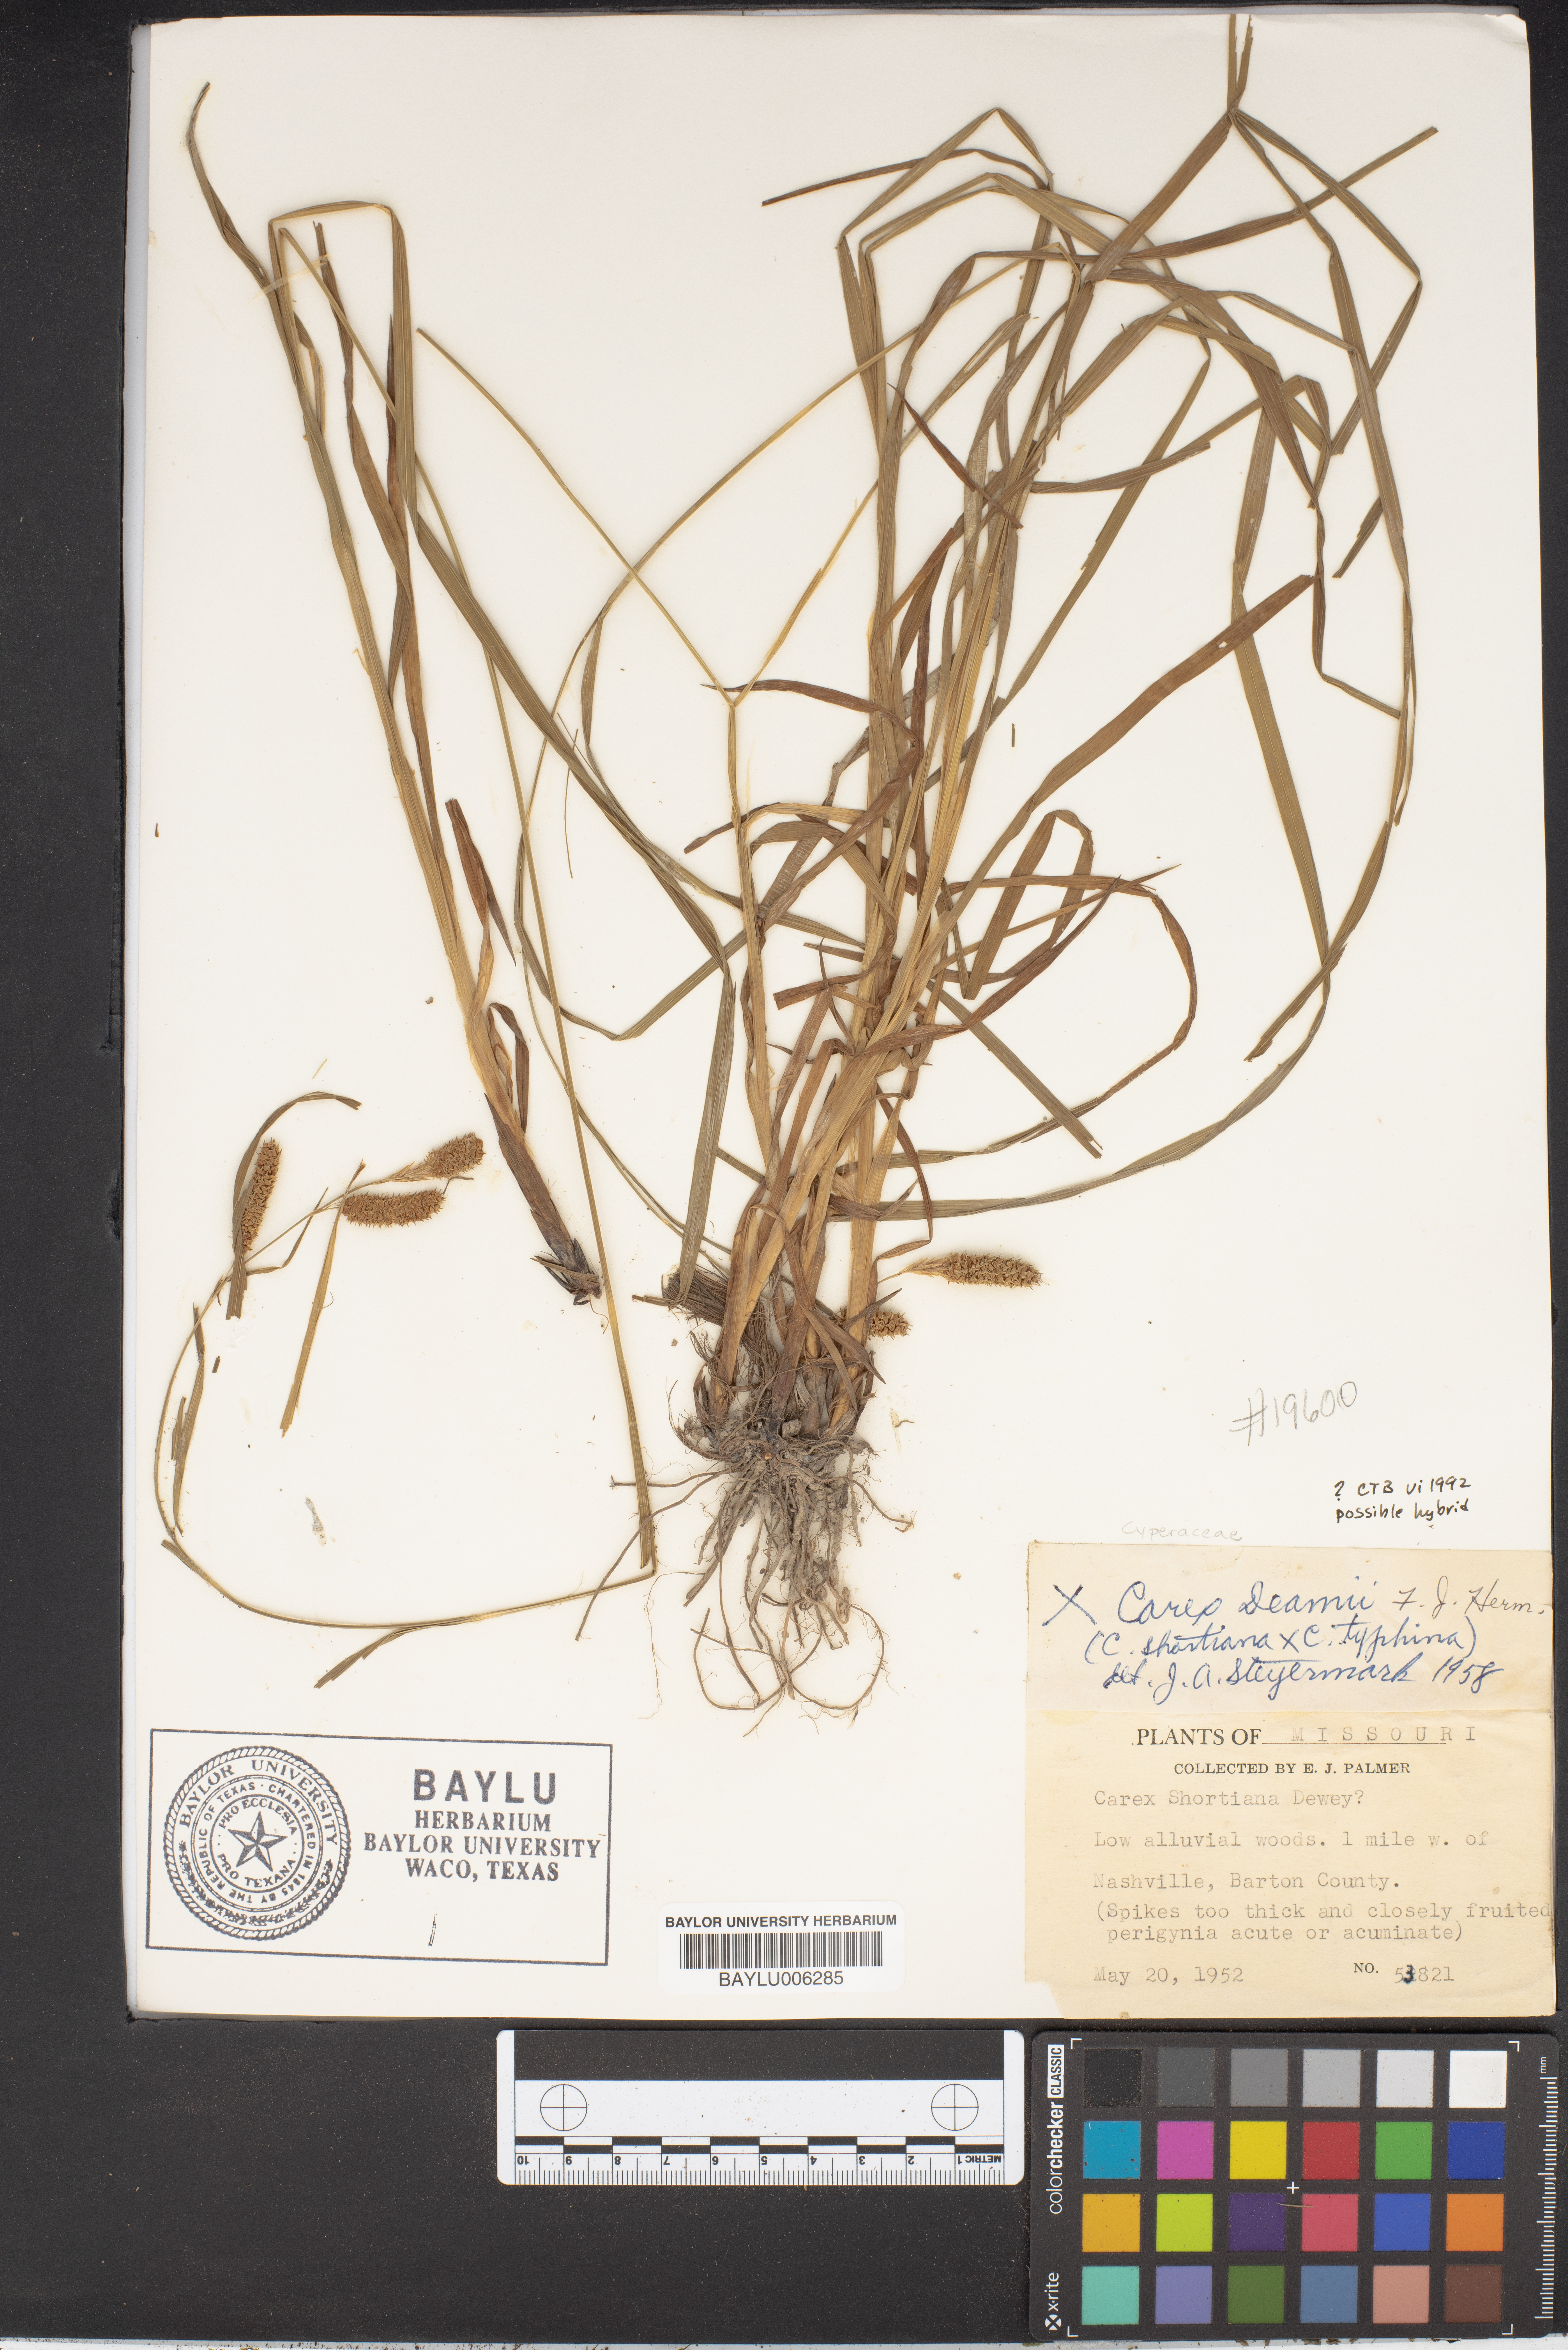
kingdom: Plantae
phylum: Tracheophyta
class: Liliopsida
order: Poales
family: Cyperaceae
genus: Carex
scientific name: Carex deamii
